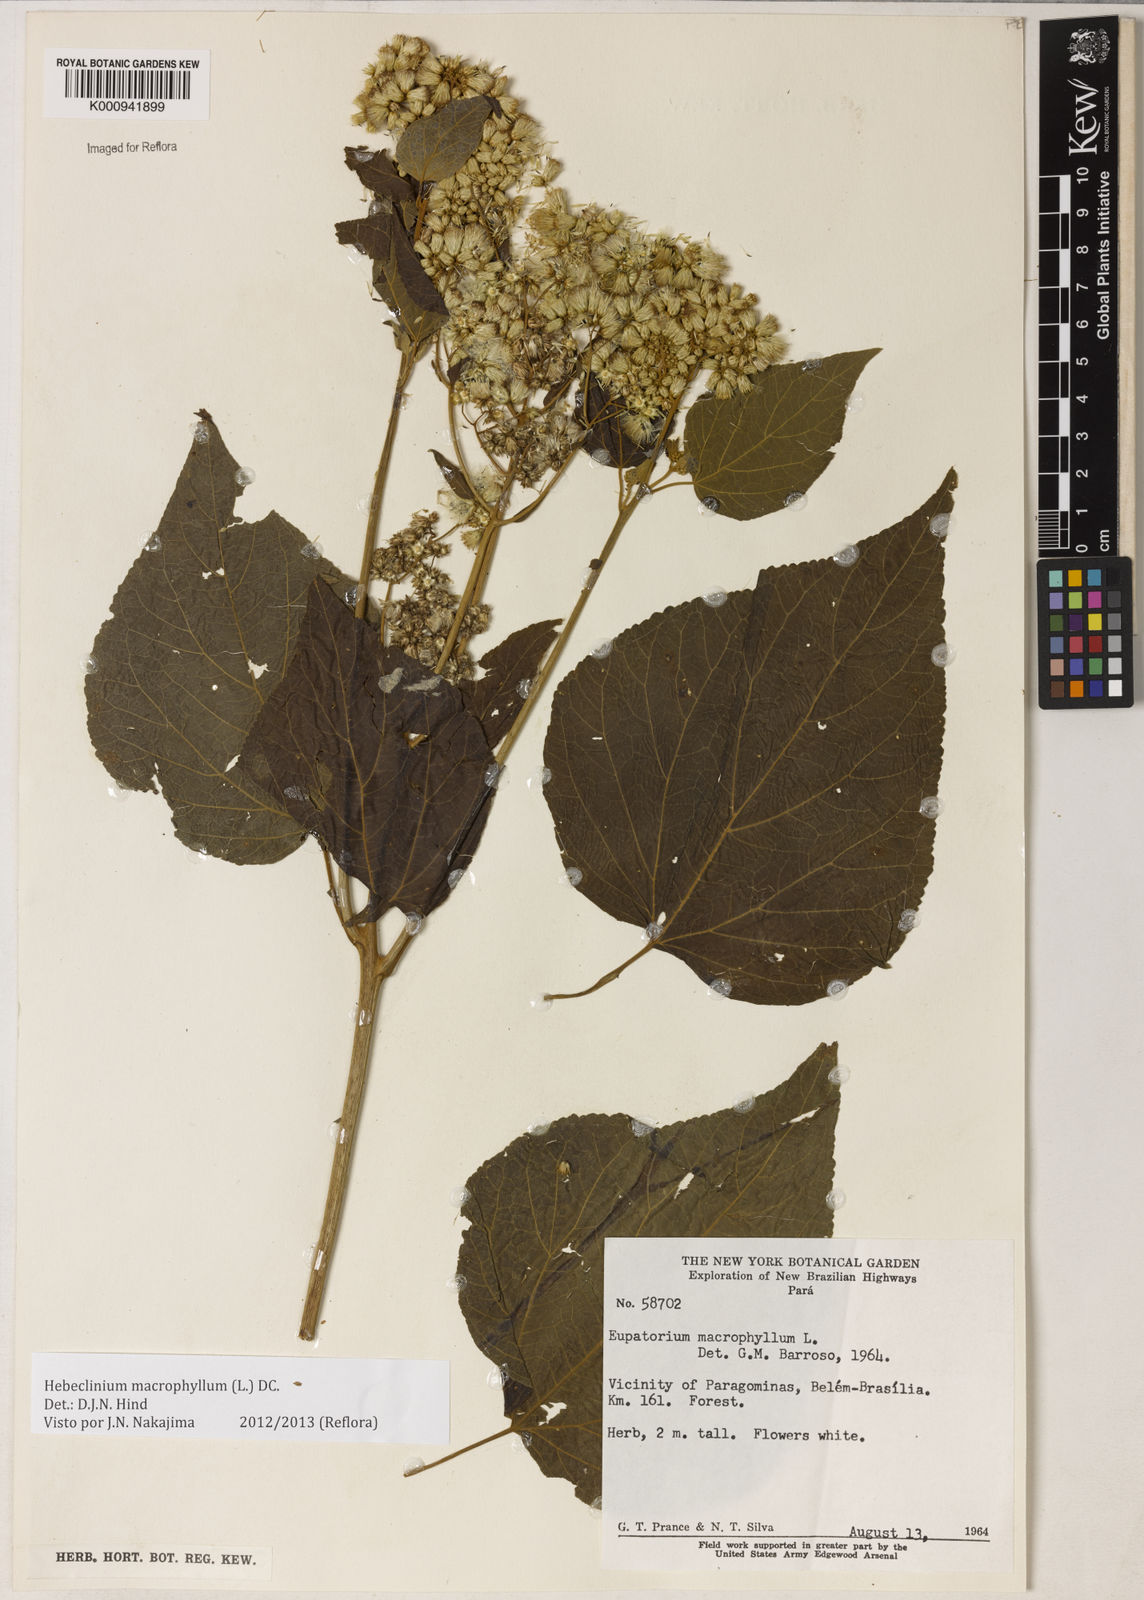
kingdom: Plantae
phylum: Tracheophyta
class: Magnoliopsida
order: Asterales
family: Asteraceae
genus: Hebeclinium
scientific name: Hebeclinium macrophyllum
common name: Largeleaf thoroughwort
